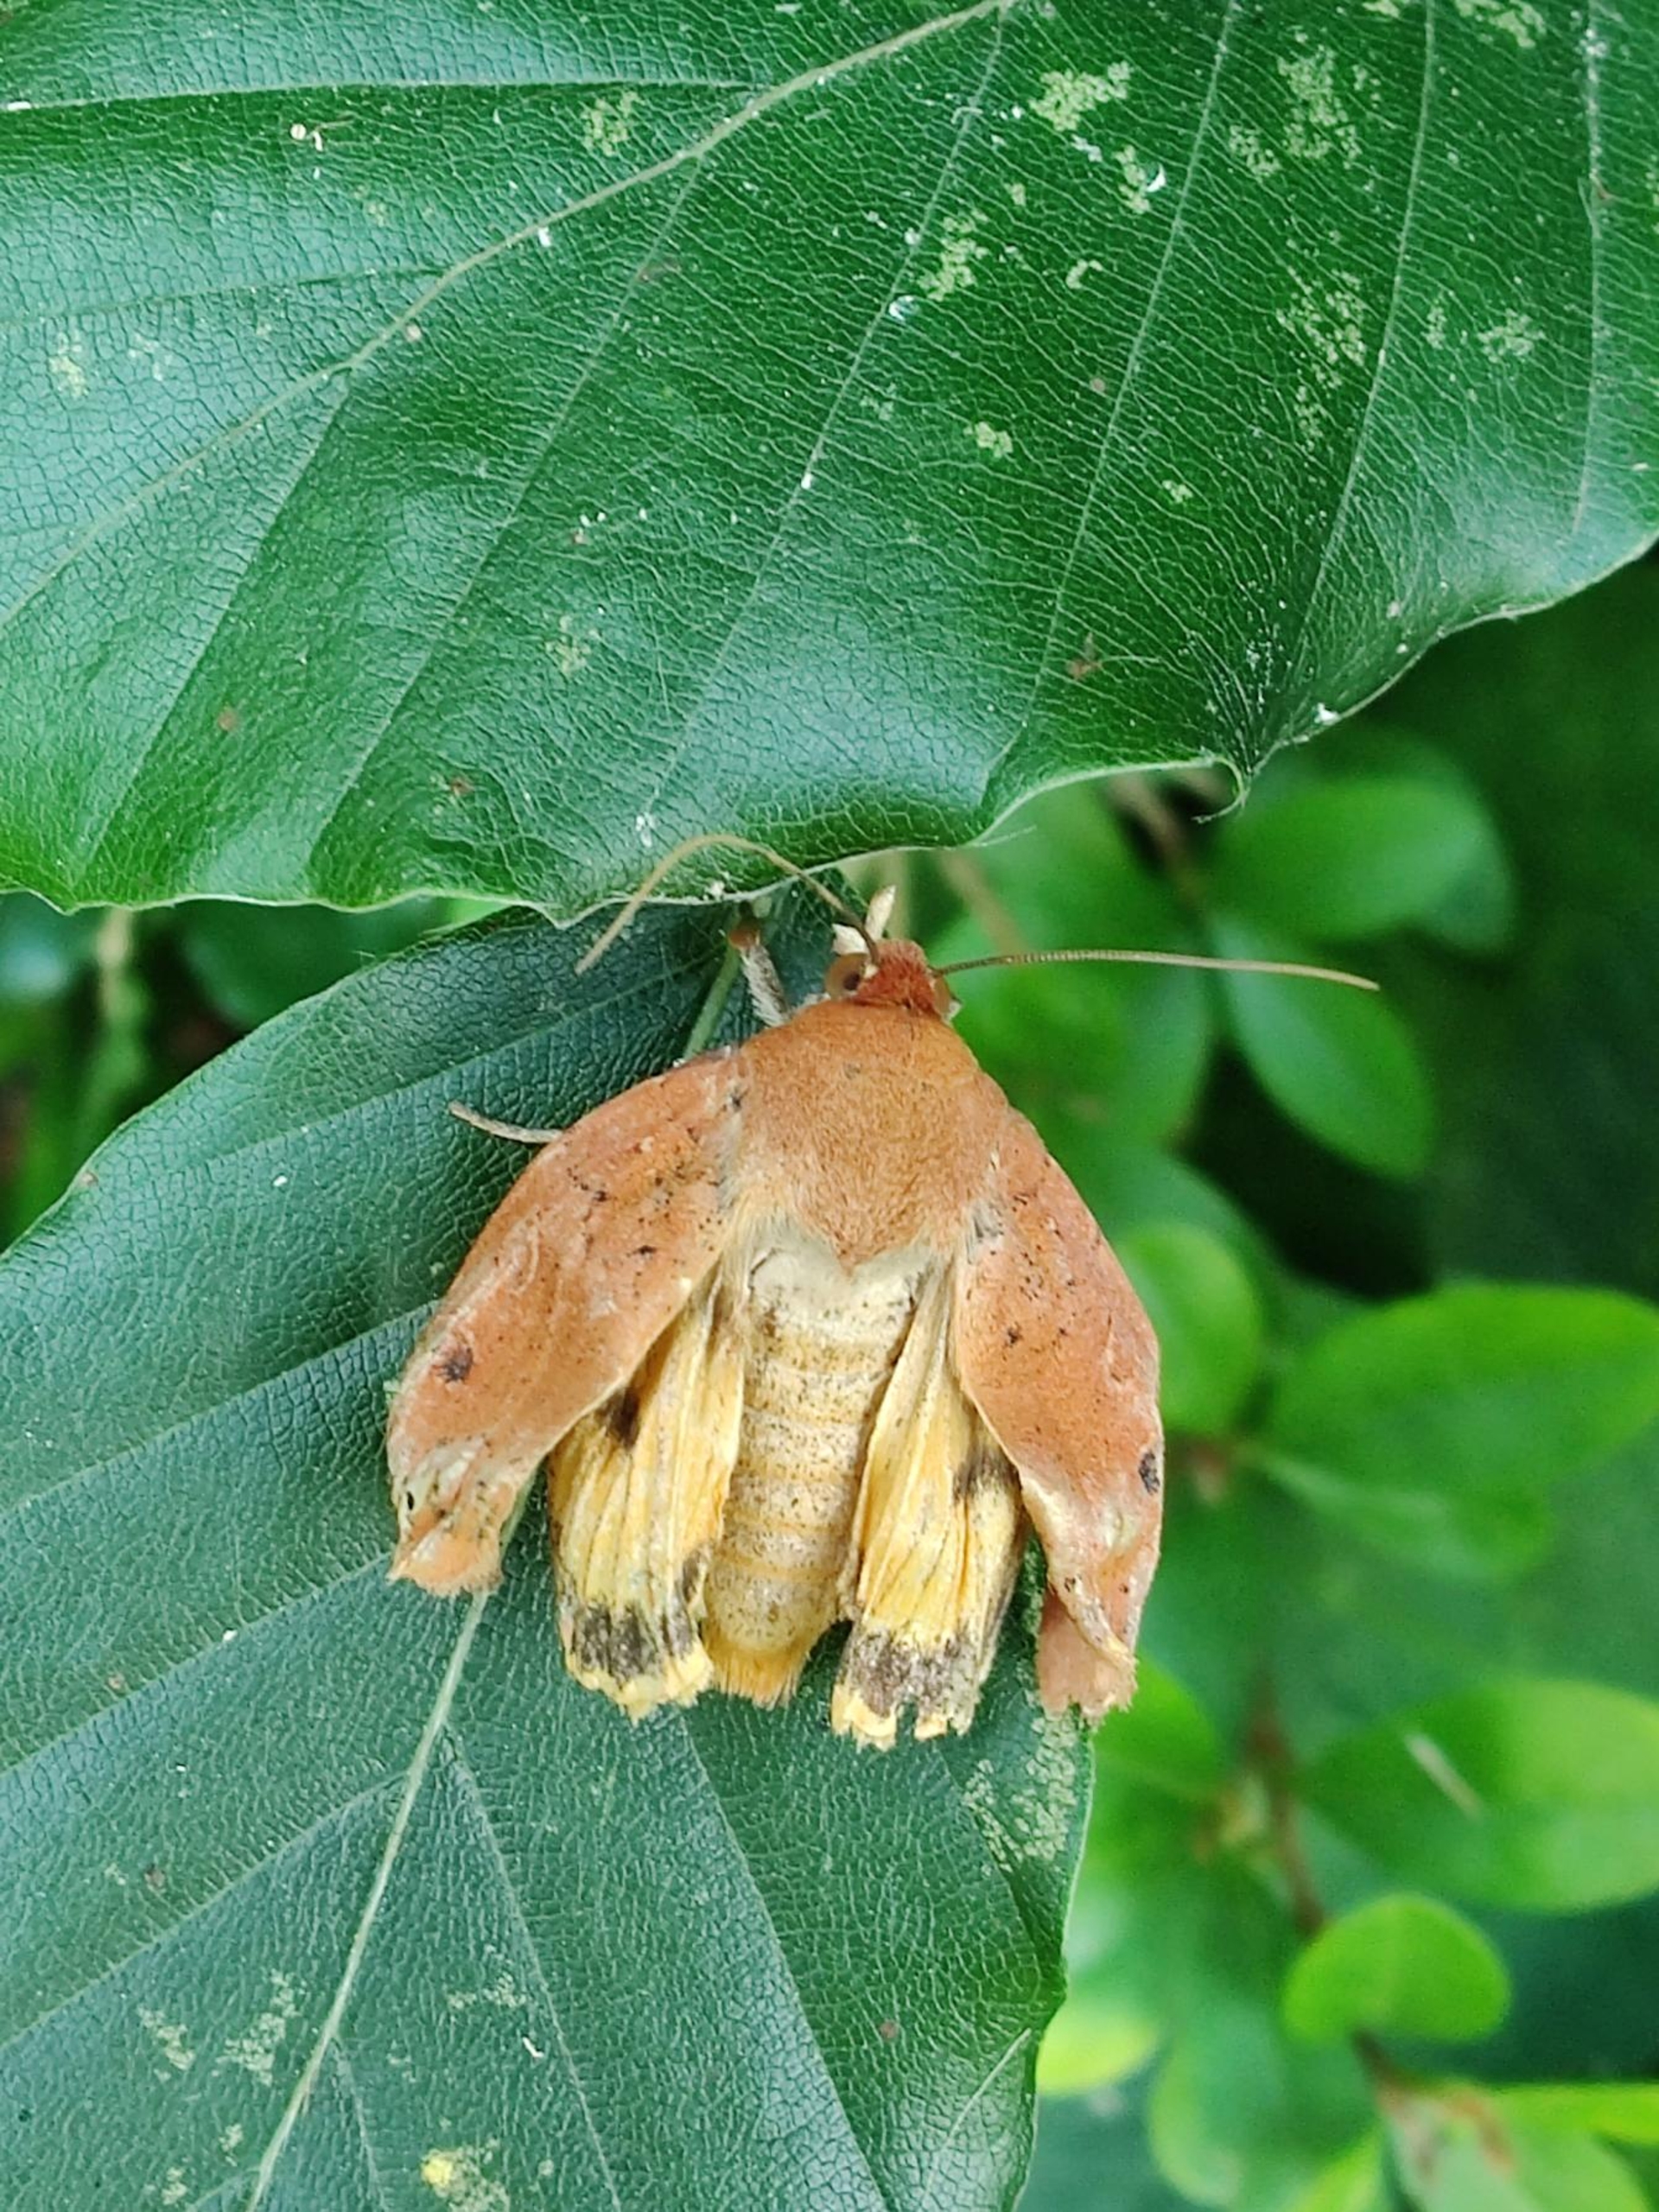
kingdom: Animalia
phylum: Arthropoda
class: Insecta
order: Lepidoptera
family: Noctuidae
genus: Noctua
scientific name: Noctua comes
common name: Svagtskygget smutugle
